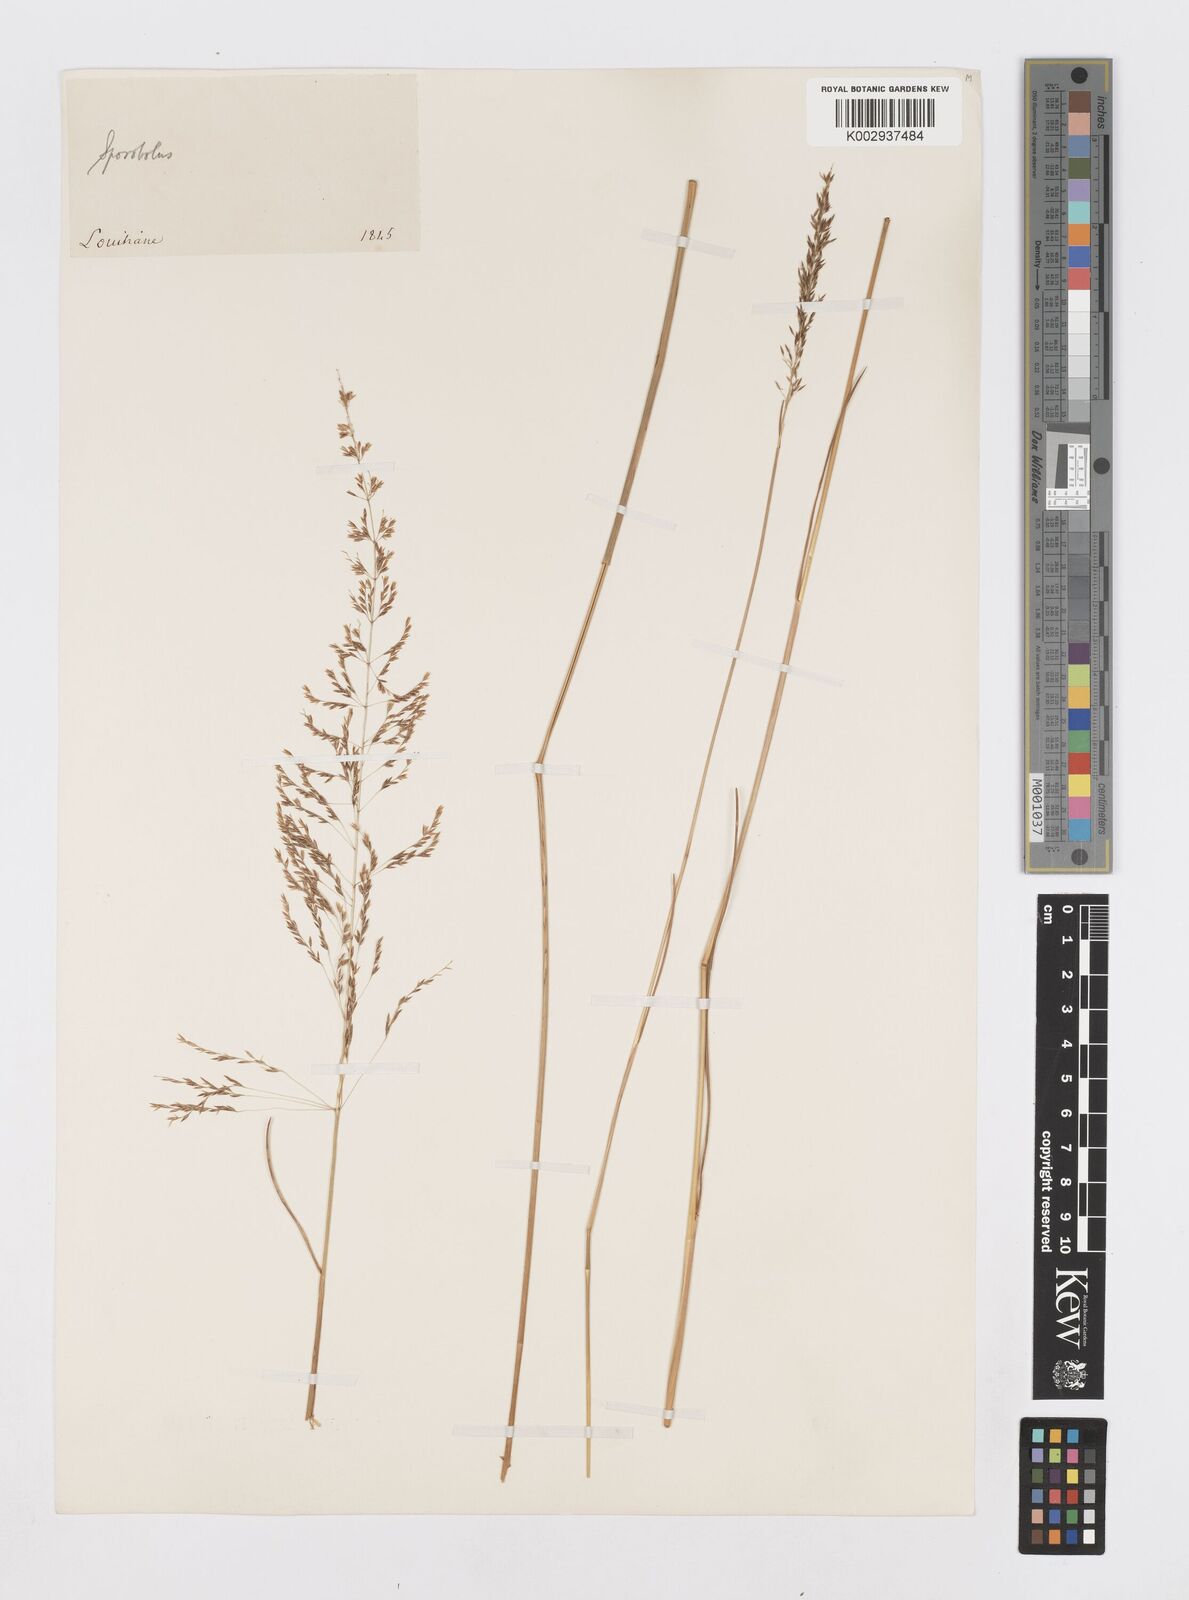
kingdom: Plantae
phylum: Tracheophyta
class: Liliopsida
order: Poales
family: Poaceae
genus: Sporobolus
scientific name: Sporobolus junceus
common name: Lizard grass
